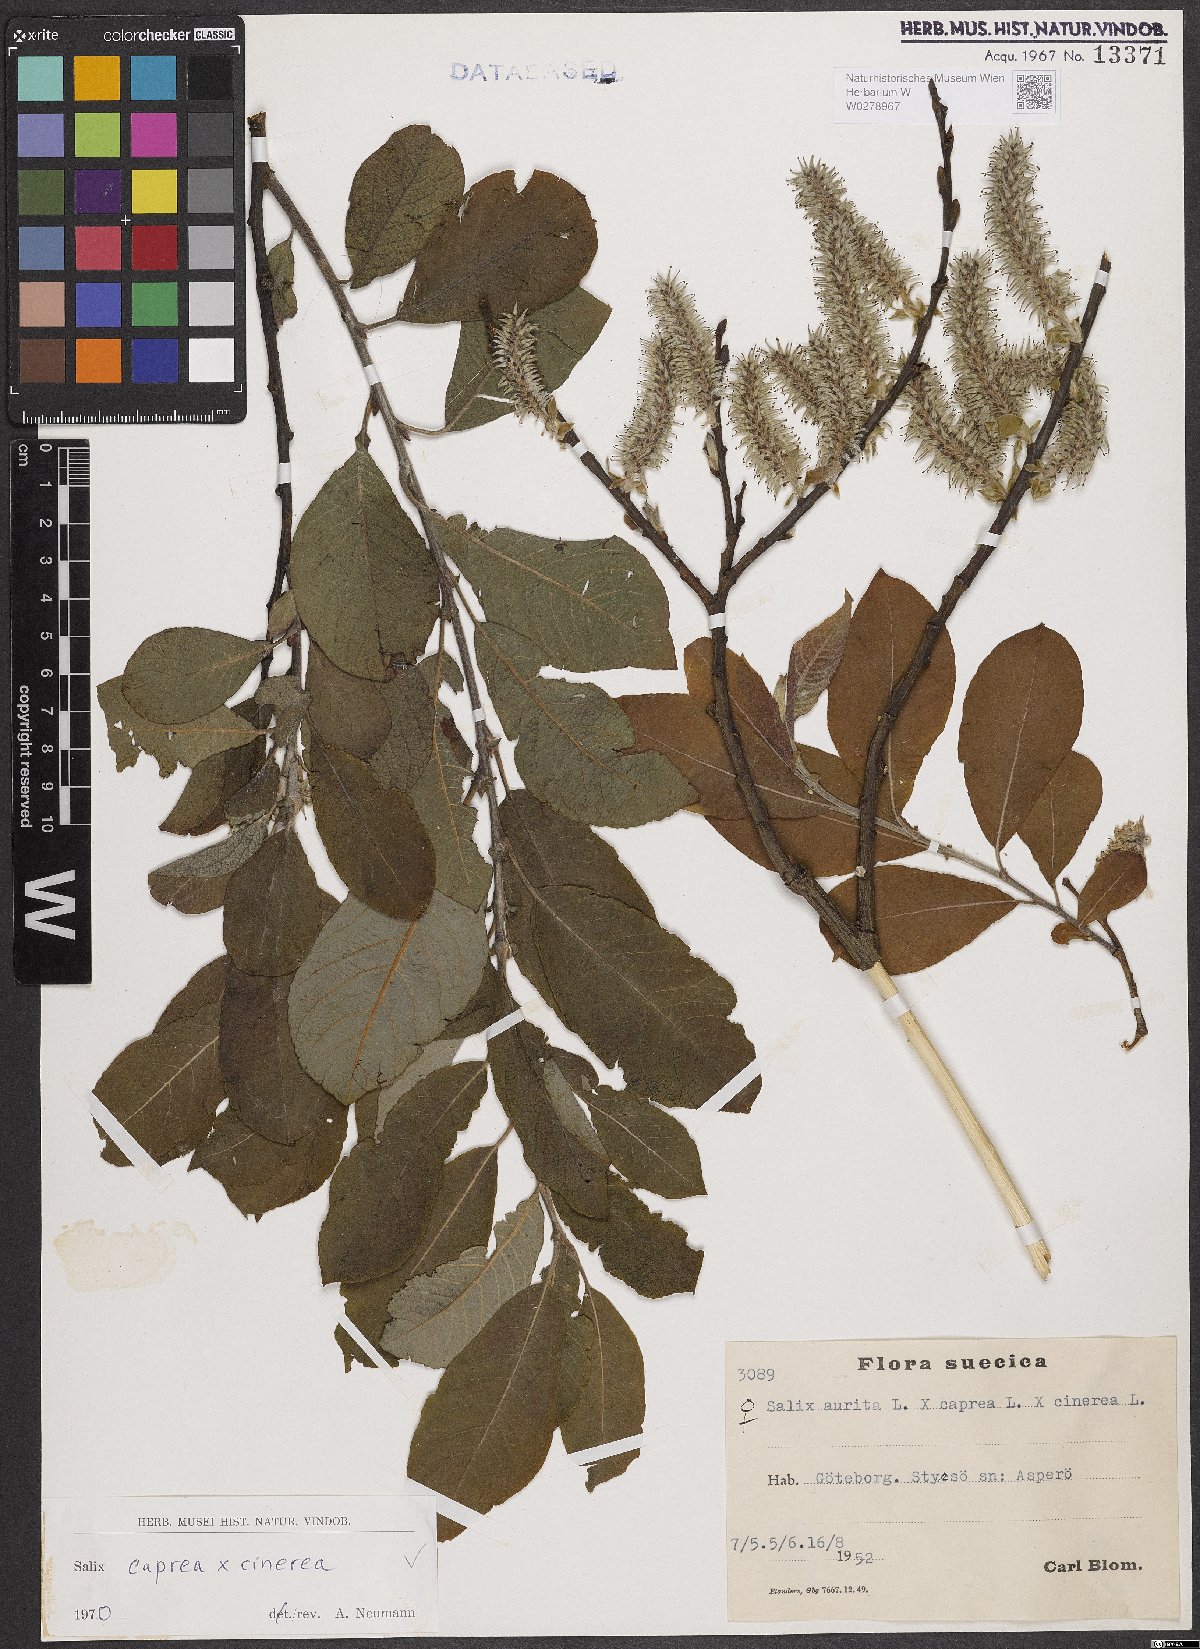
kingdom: Plantae
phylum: Tracheophyta
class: Magnoliopsida
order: Malpighiales
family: Salicaceae
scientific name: Salicaceae
